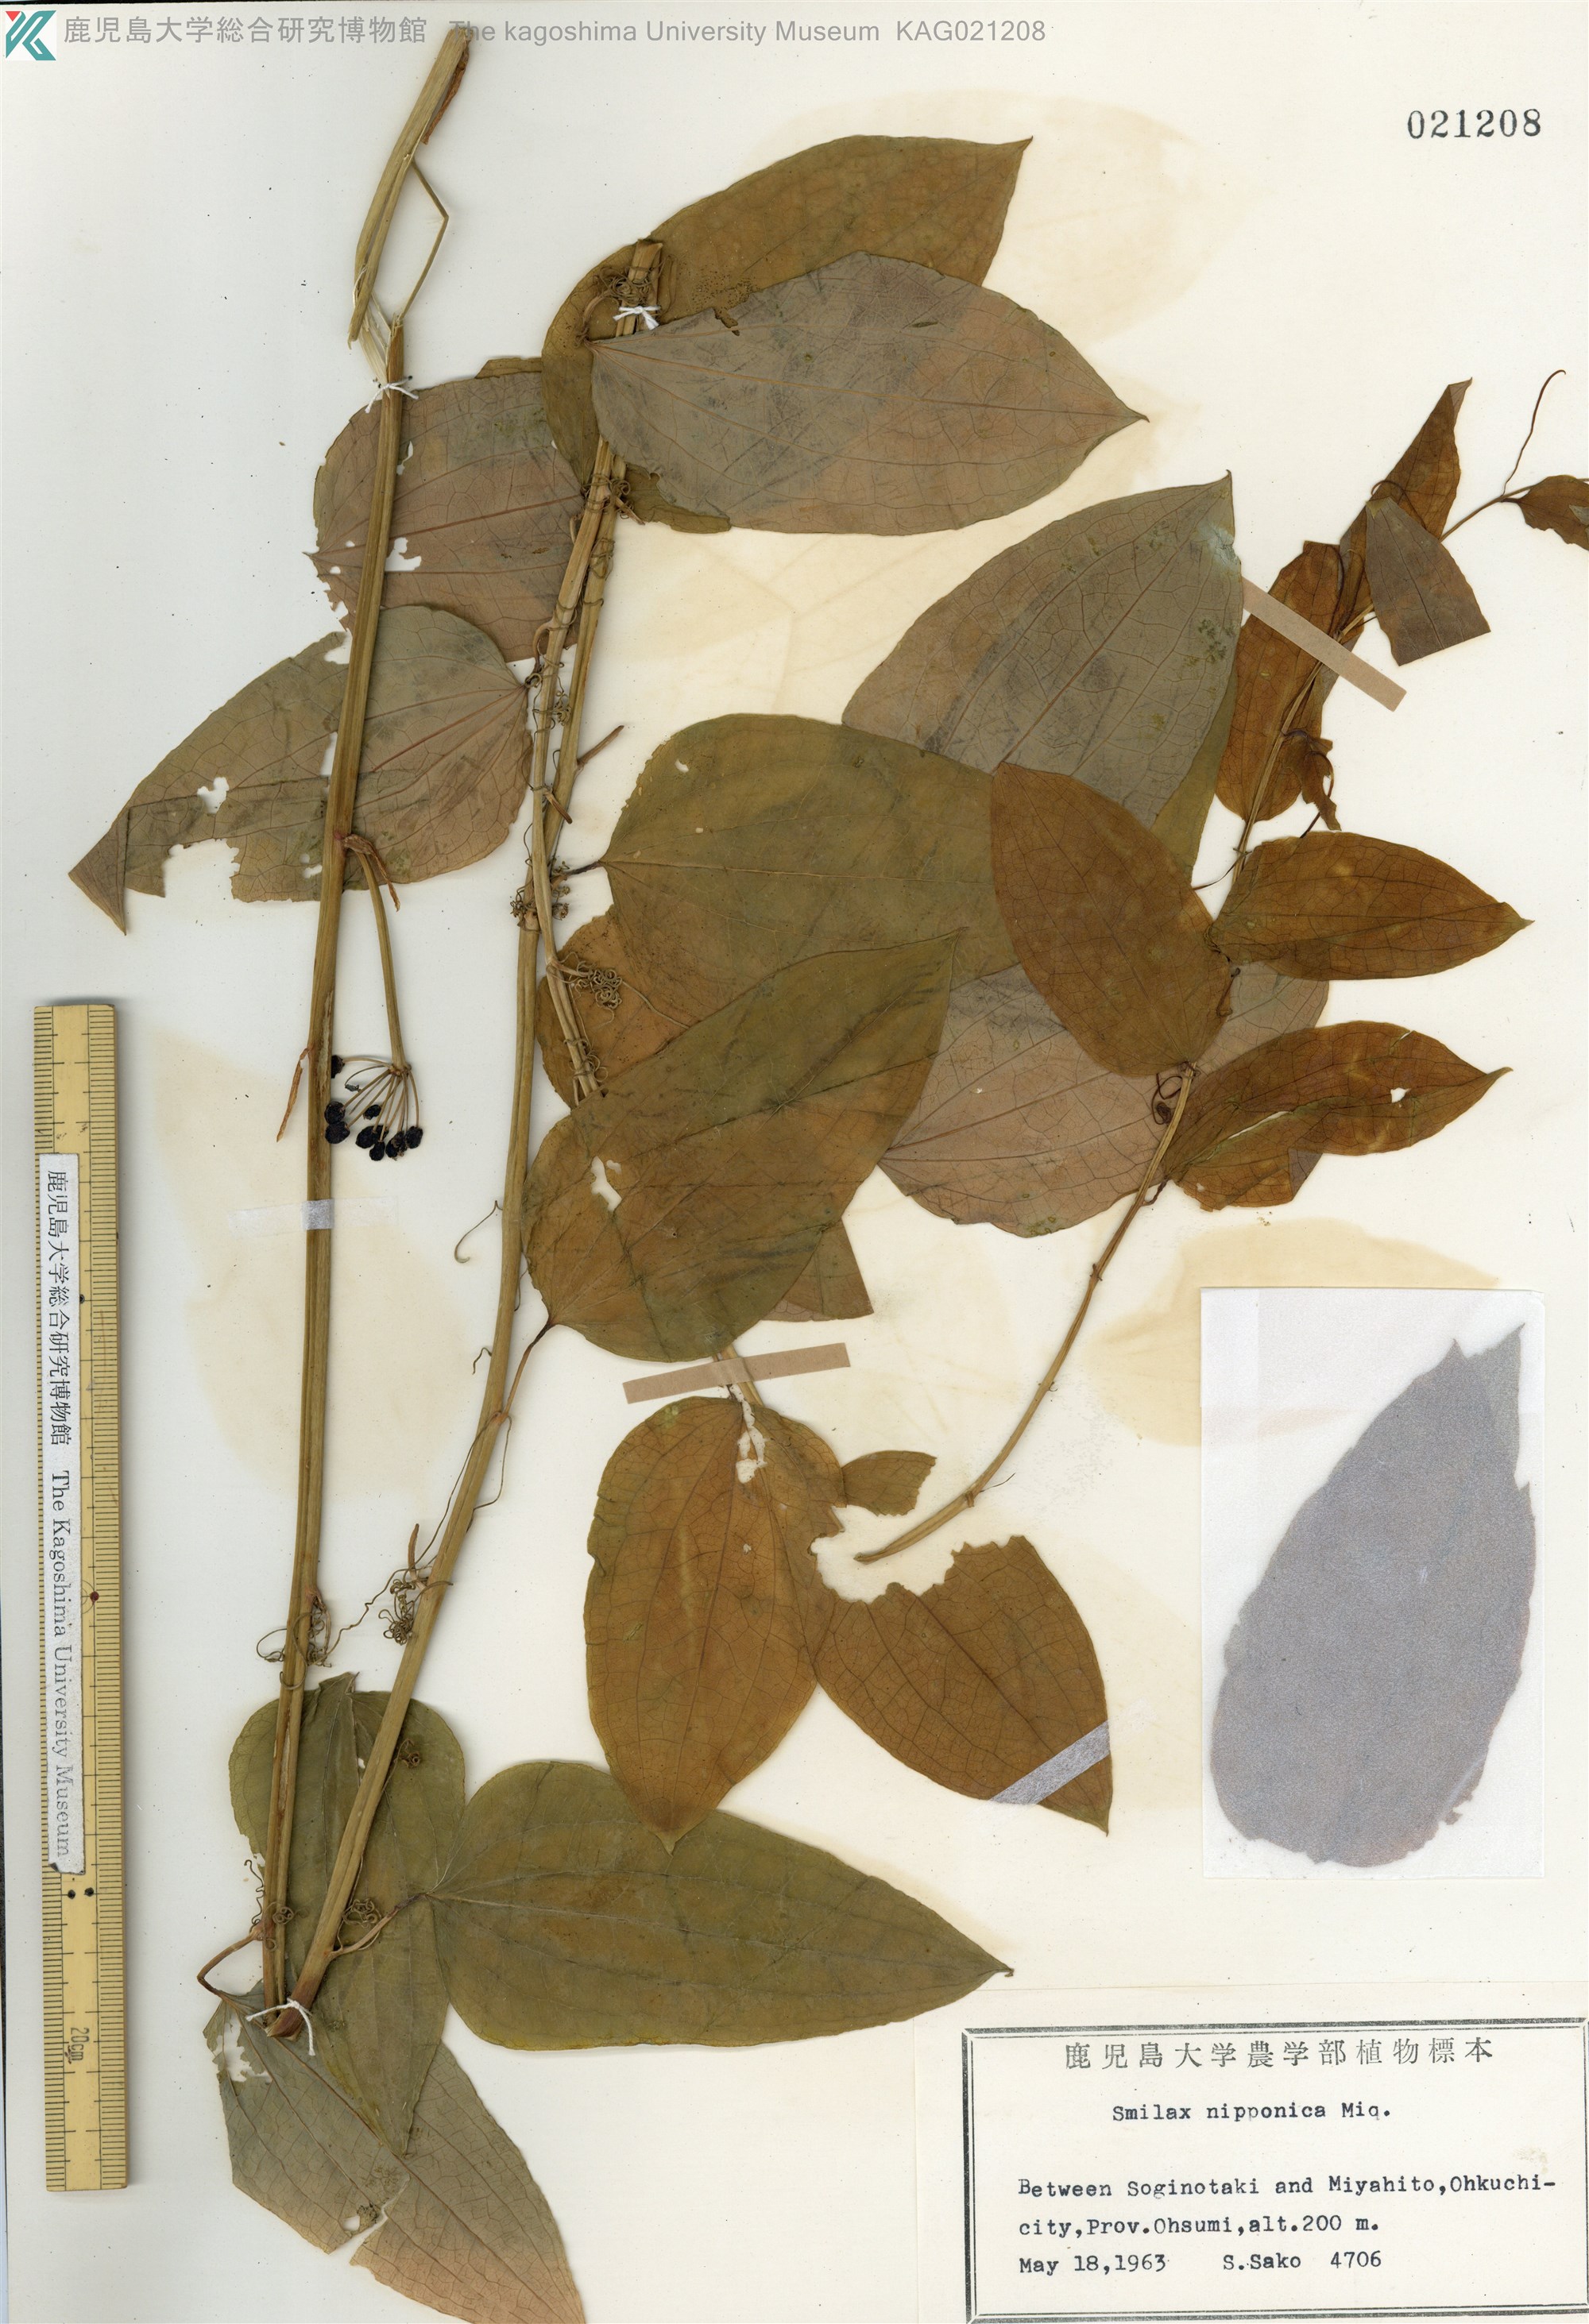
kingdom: Plantae
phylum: Tracheophyta
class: Liliopsida
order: Liliales
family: Smilacaceae
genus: Smilax
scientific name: Smilax nipponica
